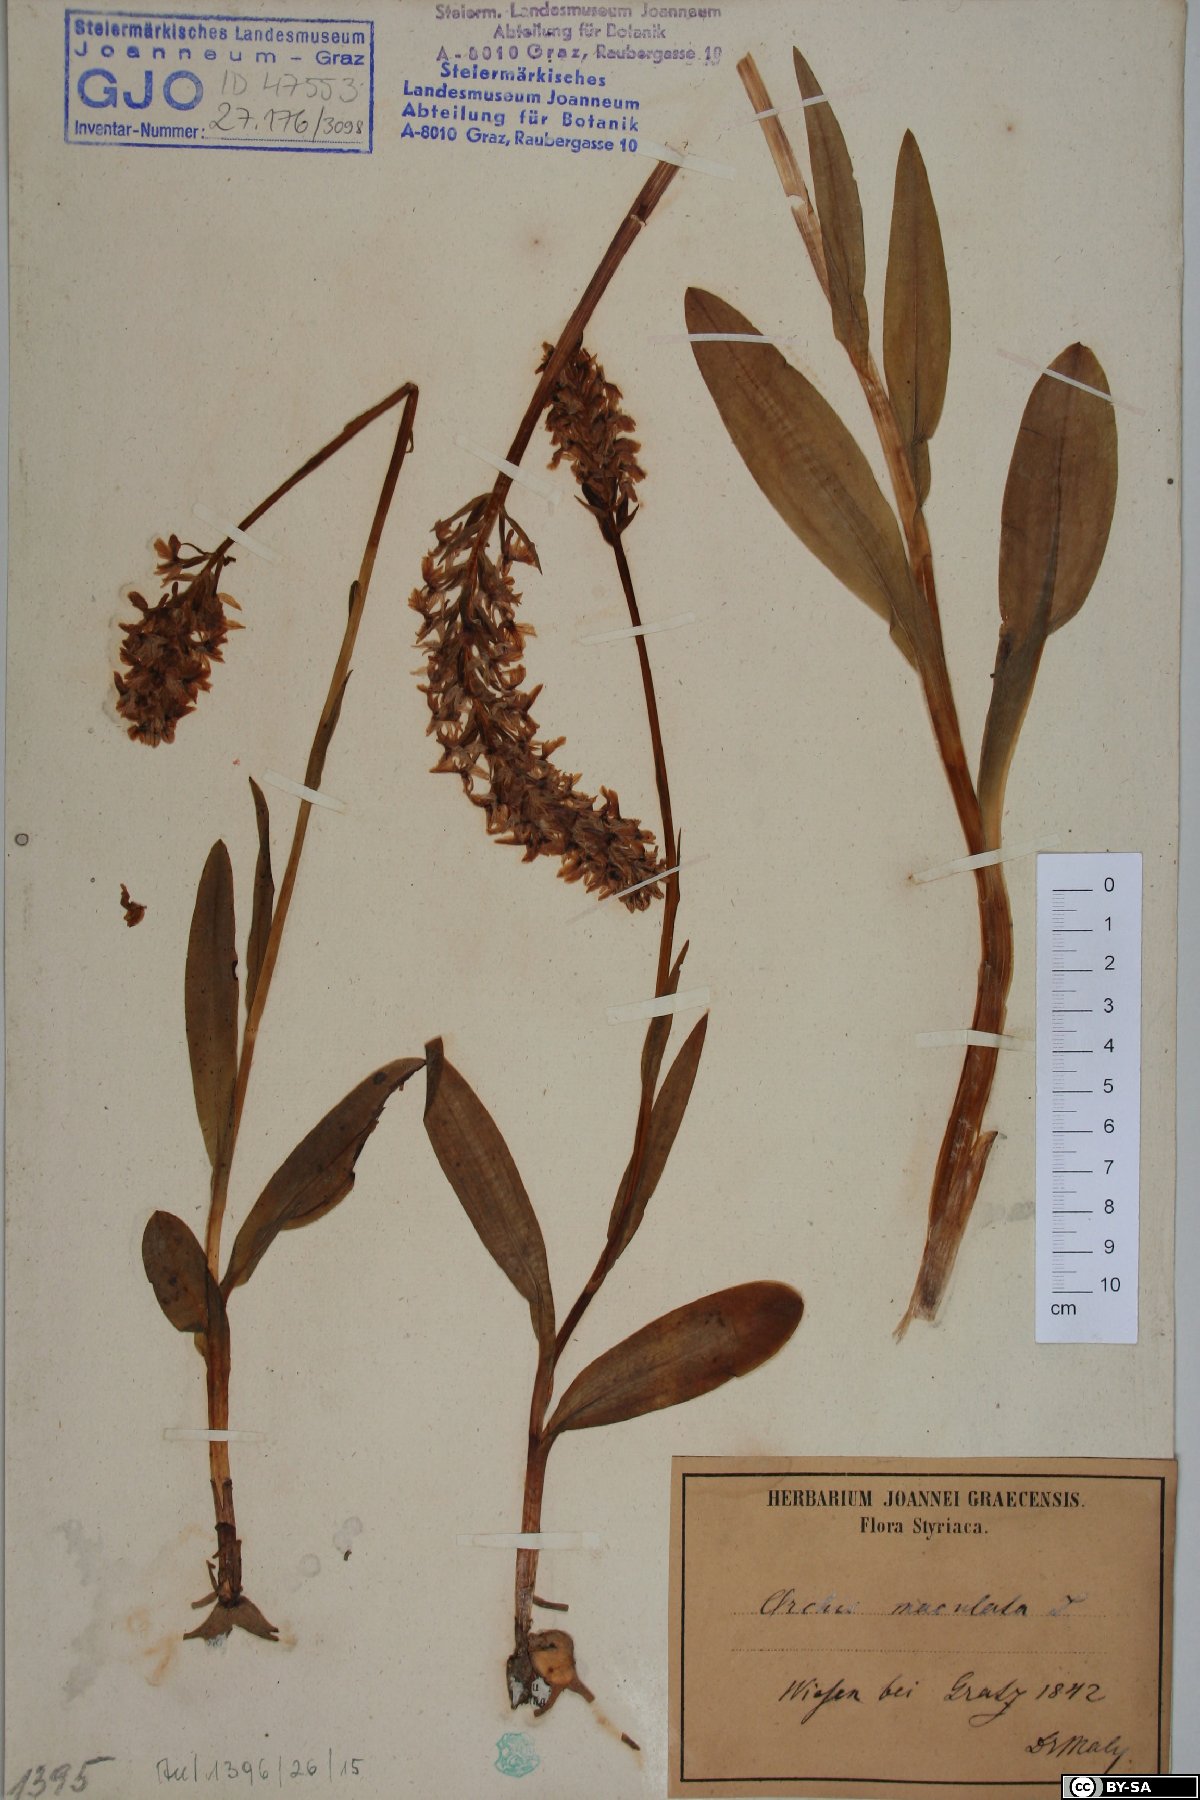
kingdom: Plantae
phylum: Tracheophyta
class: Liliopsida
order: Asparagales
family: Orchidaceae
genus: Dactylorhiza
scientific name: Dactylorhiza maculata
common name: Heath spotted-orchid
